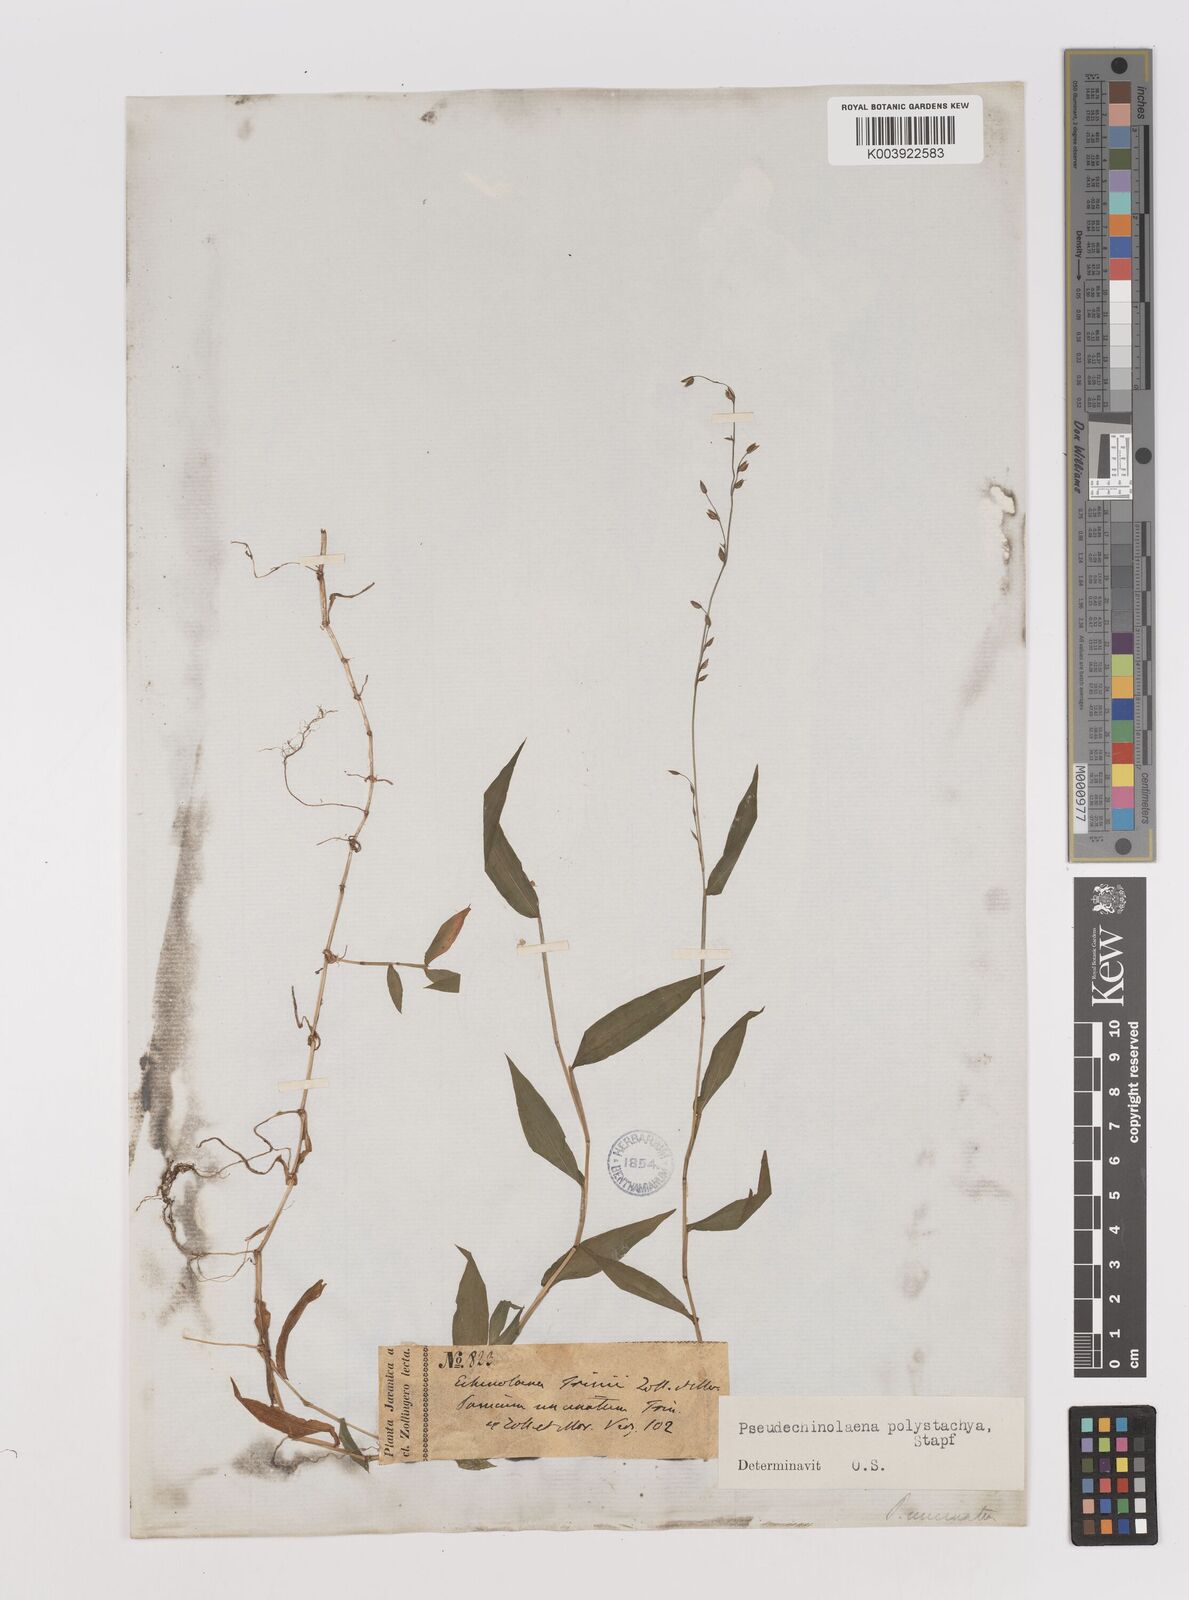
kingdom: Plantae
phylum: Tracheophyta
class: Liliopsida
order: Poales
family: Poaceae
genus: Pseudechinolaena
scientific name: Pseudechinolaena polystachya
